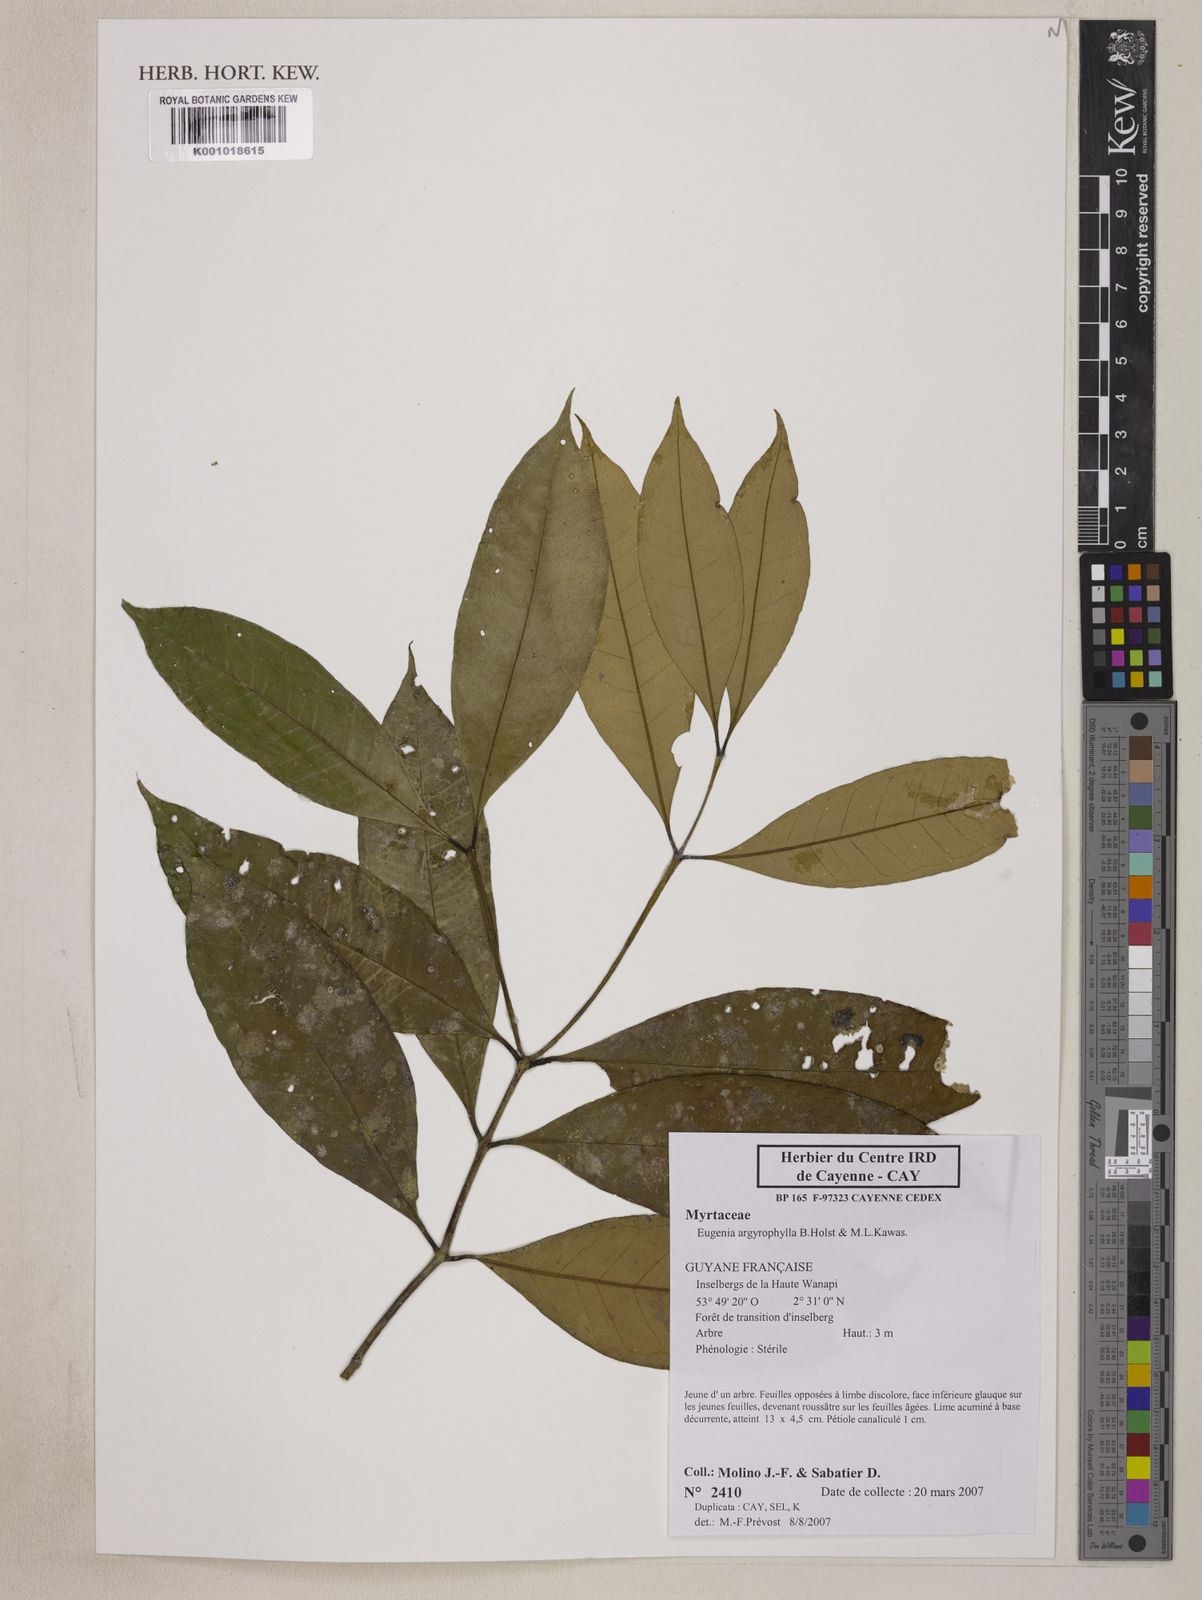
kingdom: Plantae
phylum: Tracheophyta
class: Magnoliopsida
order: Myrtales
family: Myrtaceae
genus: Eugenia
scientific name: Eugenia argyrophylla
